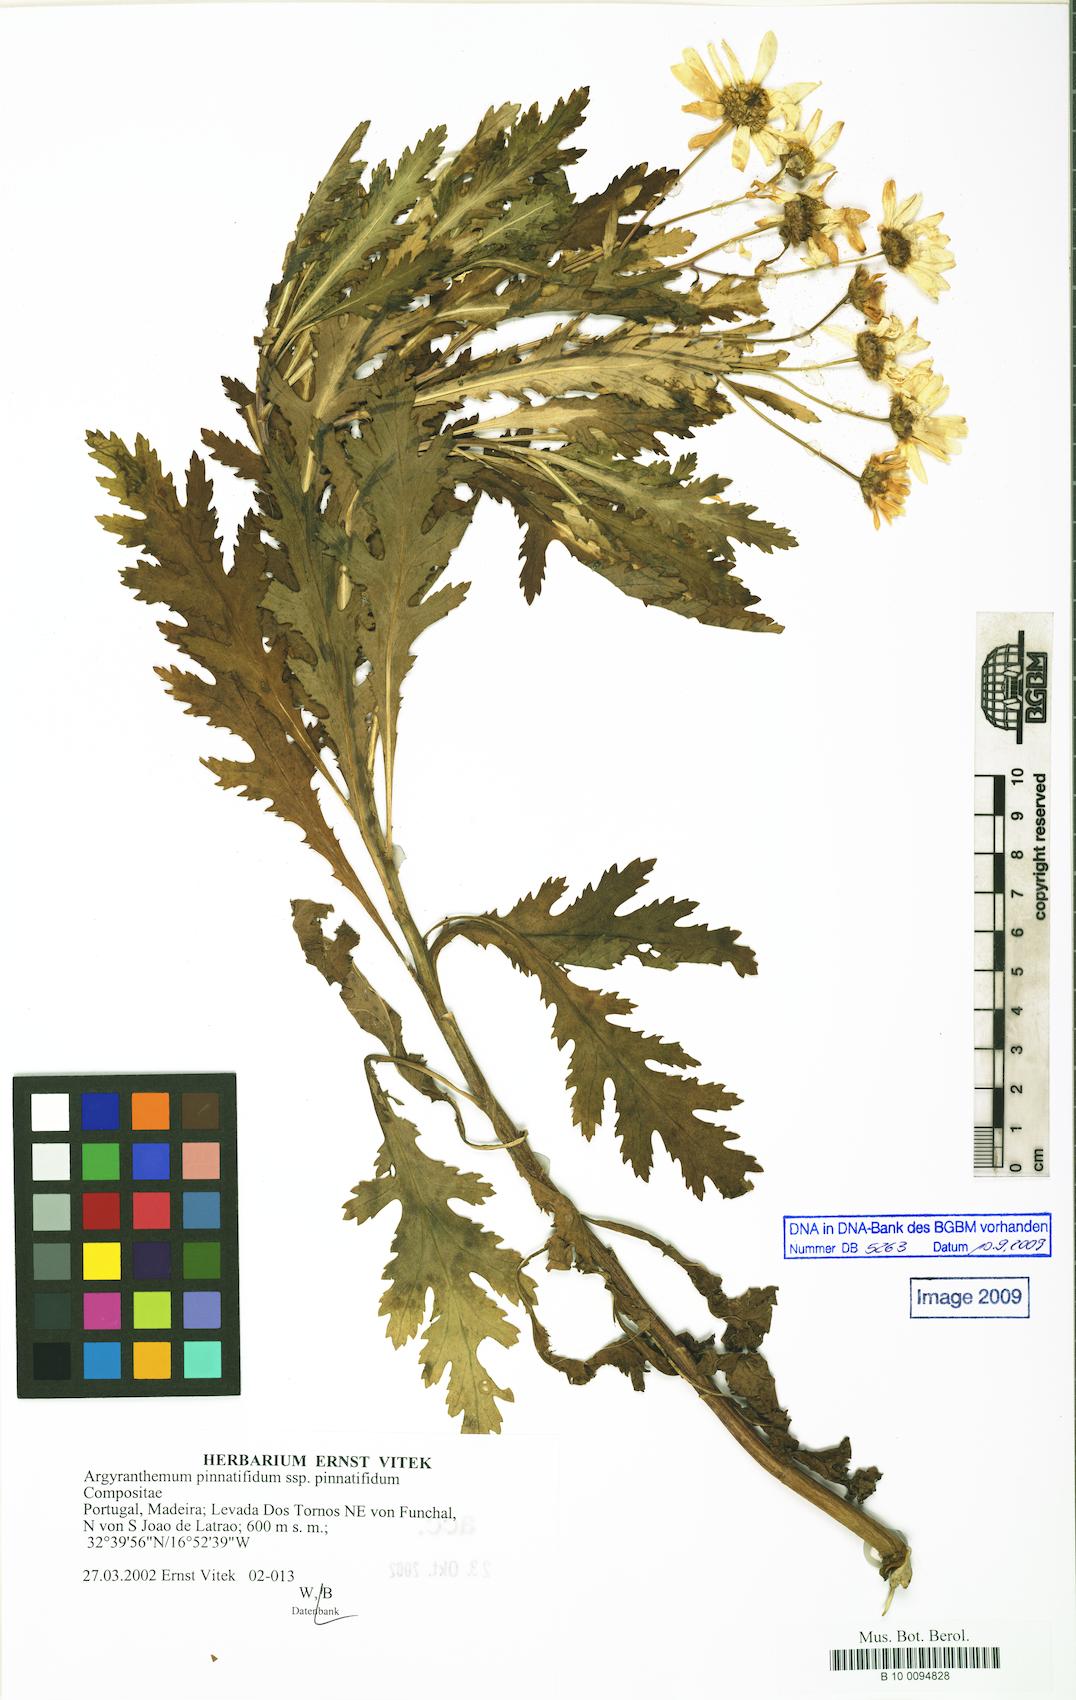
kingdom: Plantae
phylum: Tracheophyta
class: Magnoliopsida
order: Asterales
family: Asteraceae
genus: Argyranthemum
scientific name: Argyranthemum pinnatifidum
